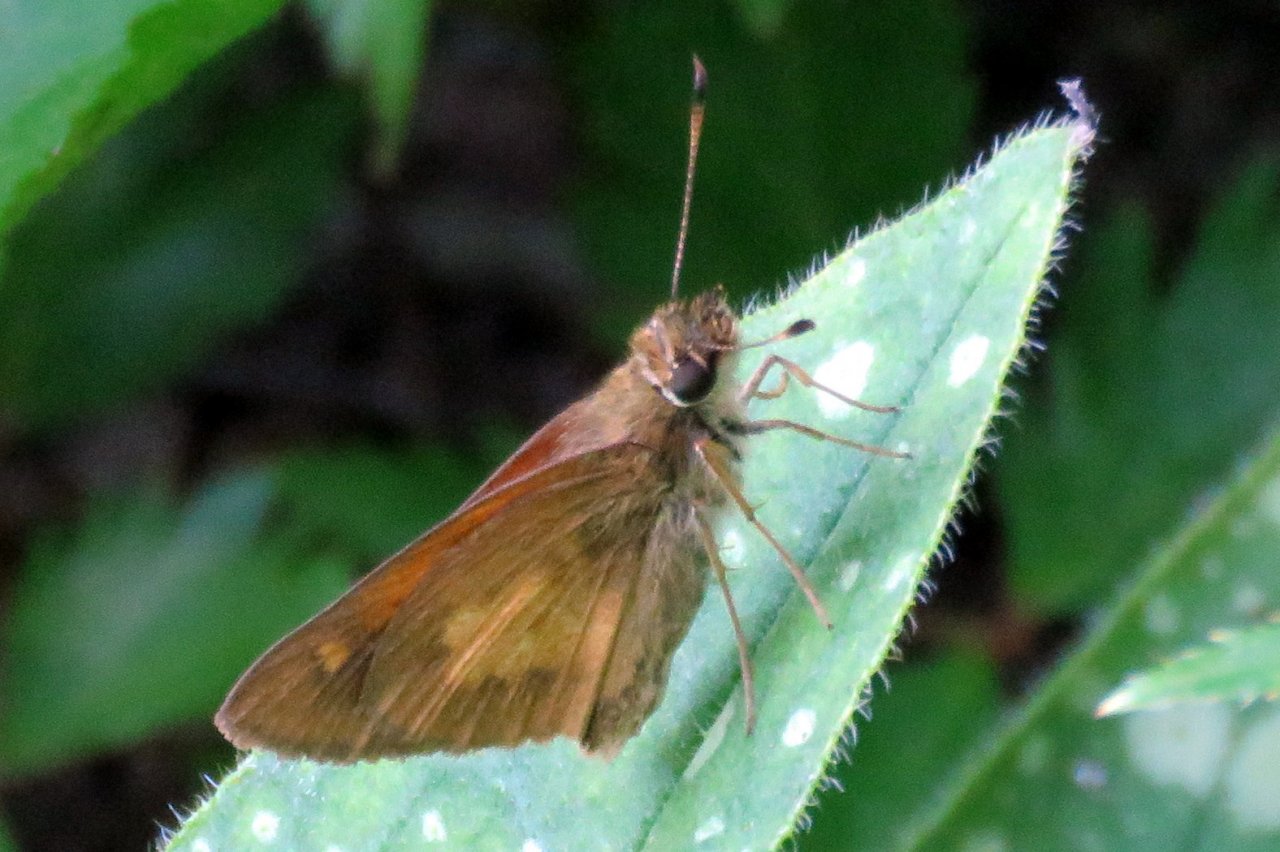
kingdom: Animalia
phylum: Arthropoda
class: Insecta
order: Lepidoptera
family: Hesperiidae
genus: Poanes
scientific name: Poanes viator
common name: Broad-winged Skipper
